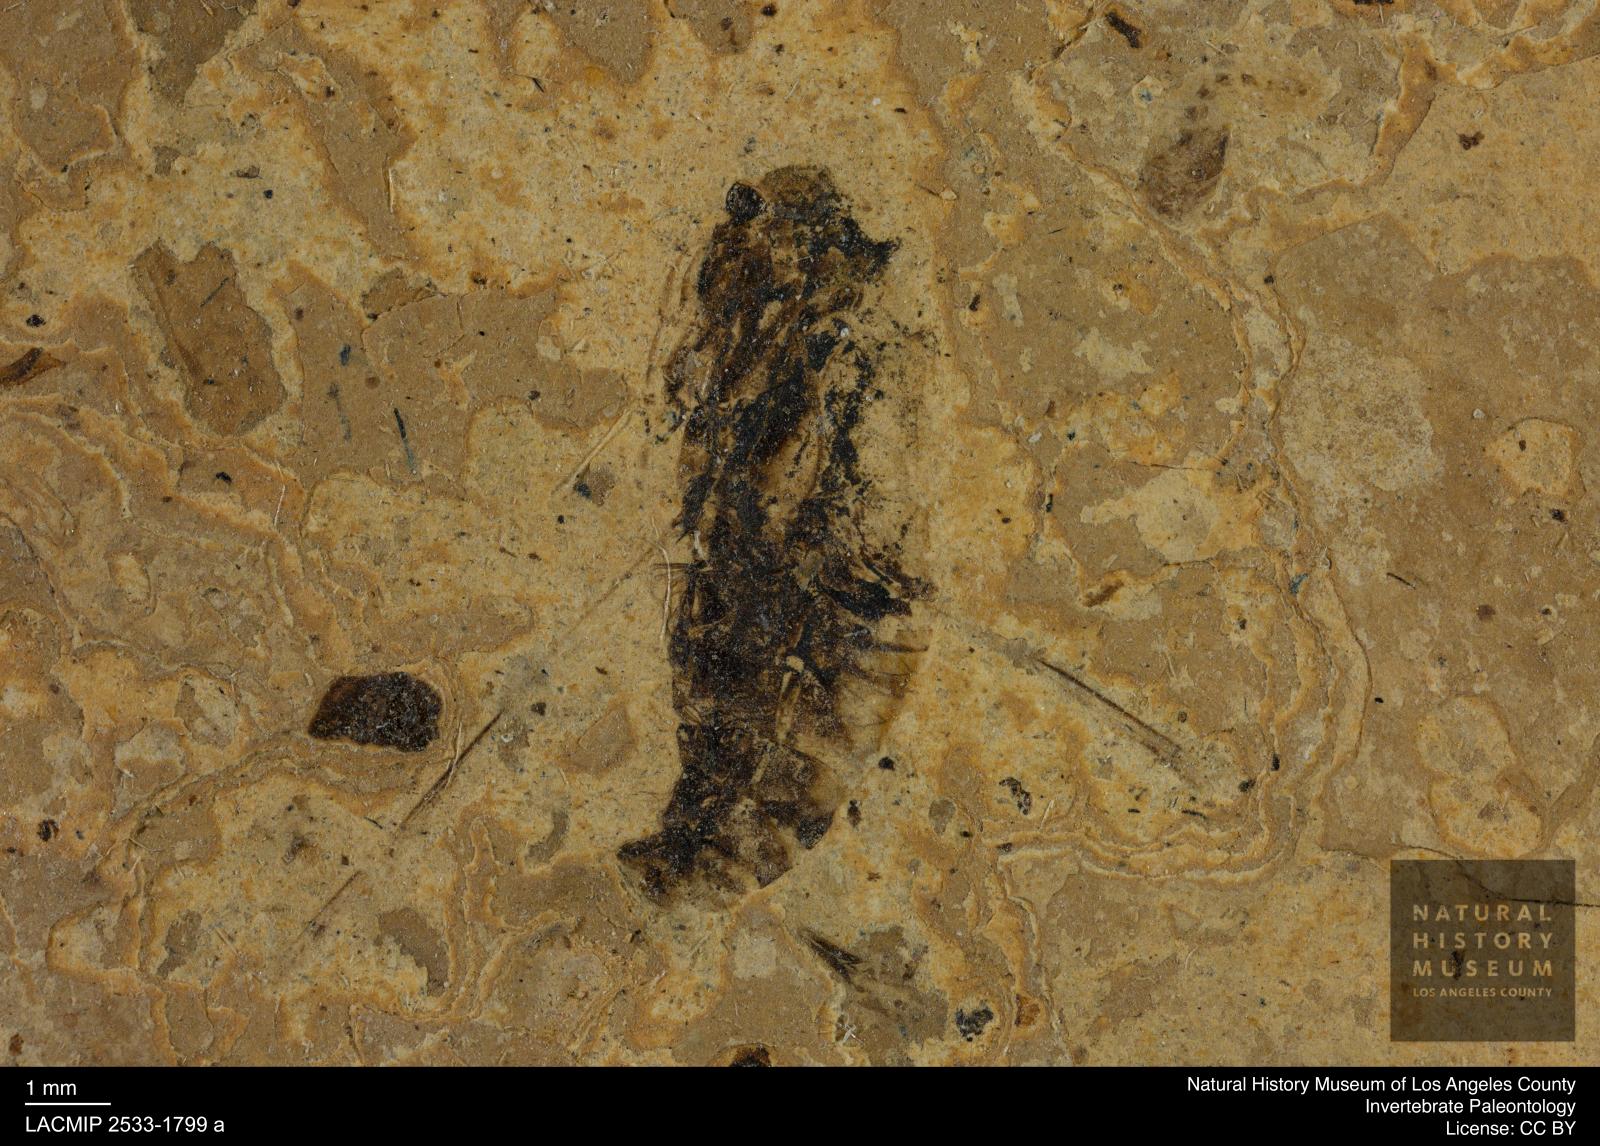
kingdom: Animalia
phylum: Arthropoda
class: Insecta
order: Hemiptera
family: Notonectidae
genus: Anisops
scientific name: Anisops Notonecta deichmuelleri
